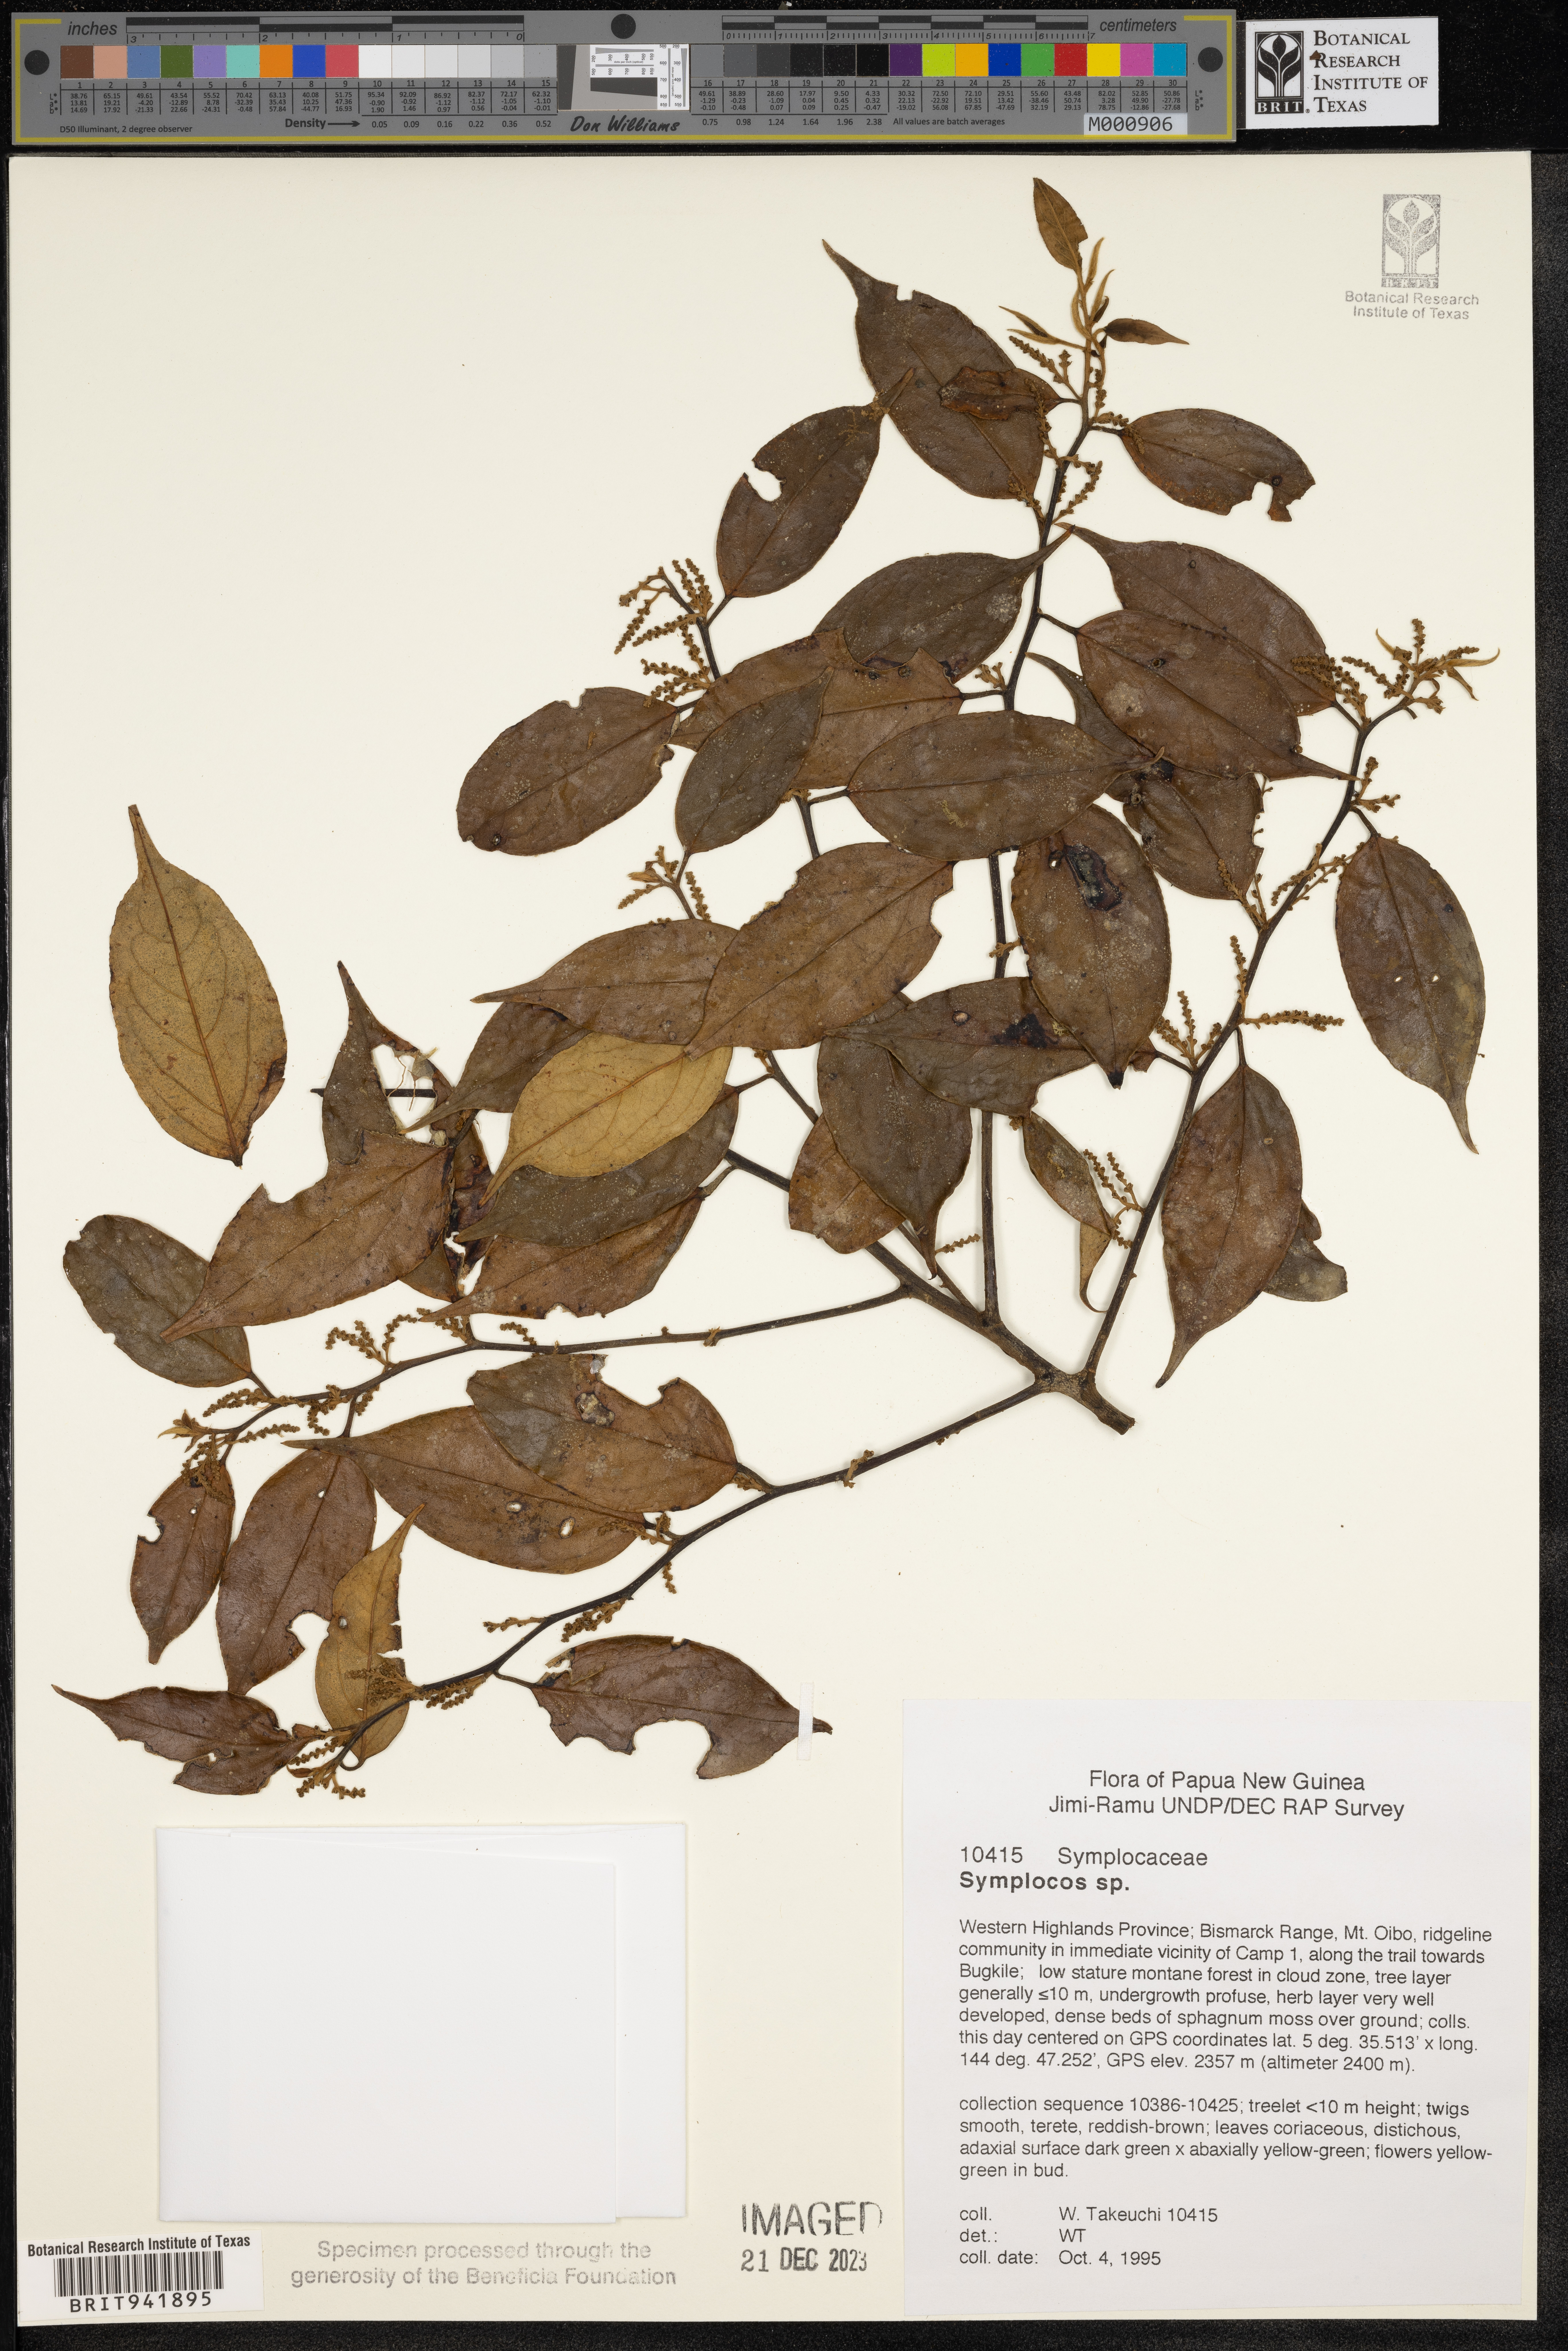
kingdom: Plantae
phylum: Tracheophyta
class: Magnoliopsida
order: Ericales
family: Symplocaceae
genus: Symplocos
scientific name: Symplocos
